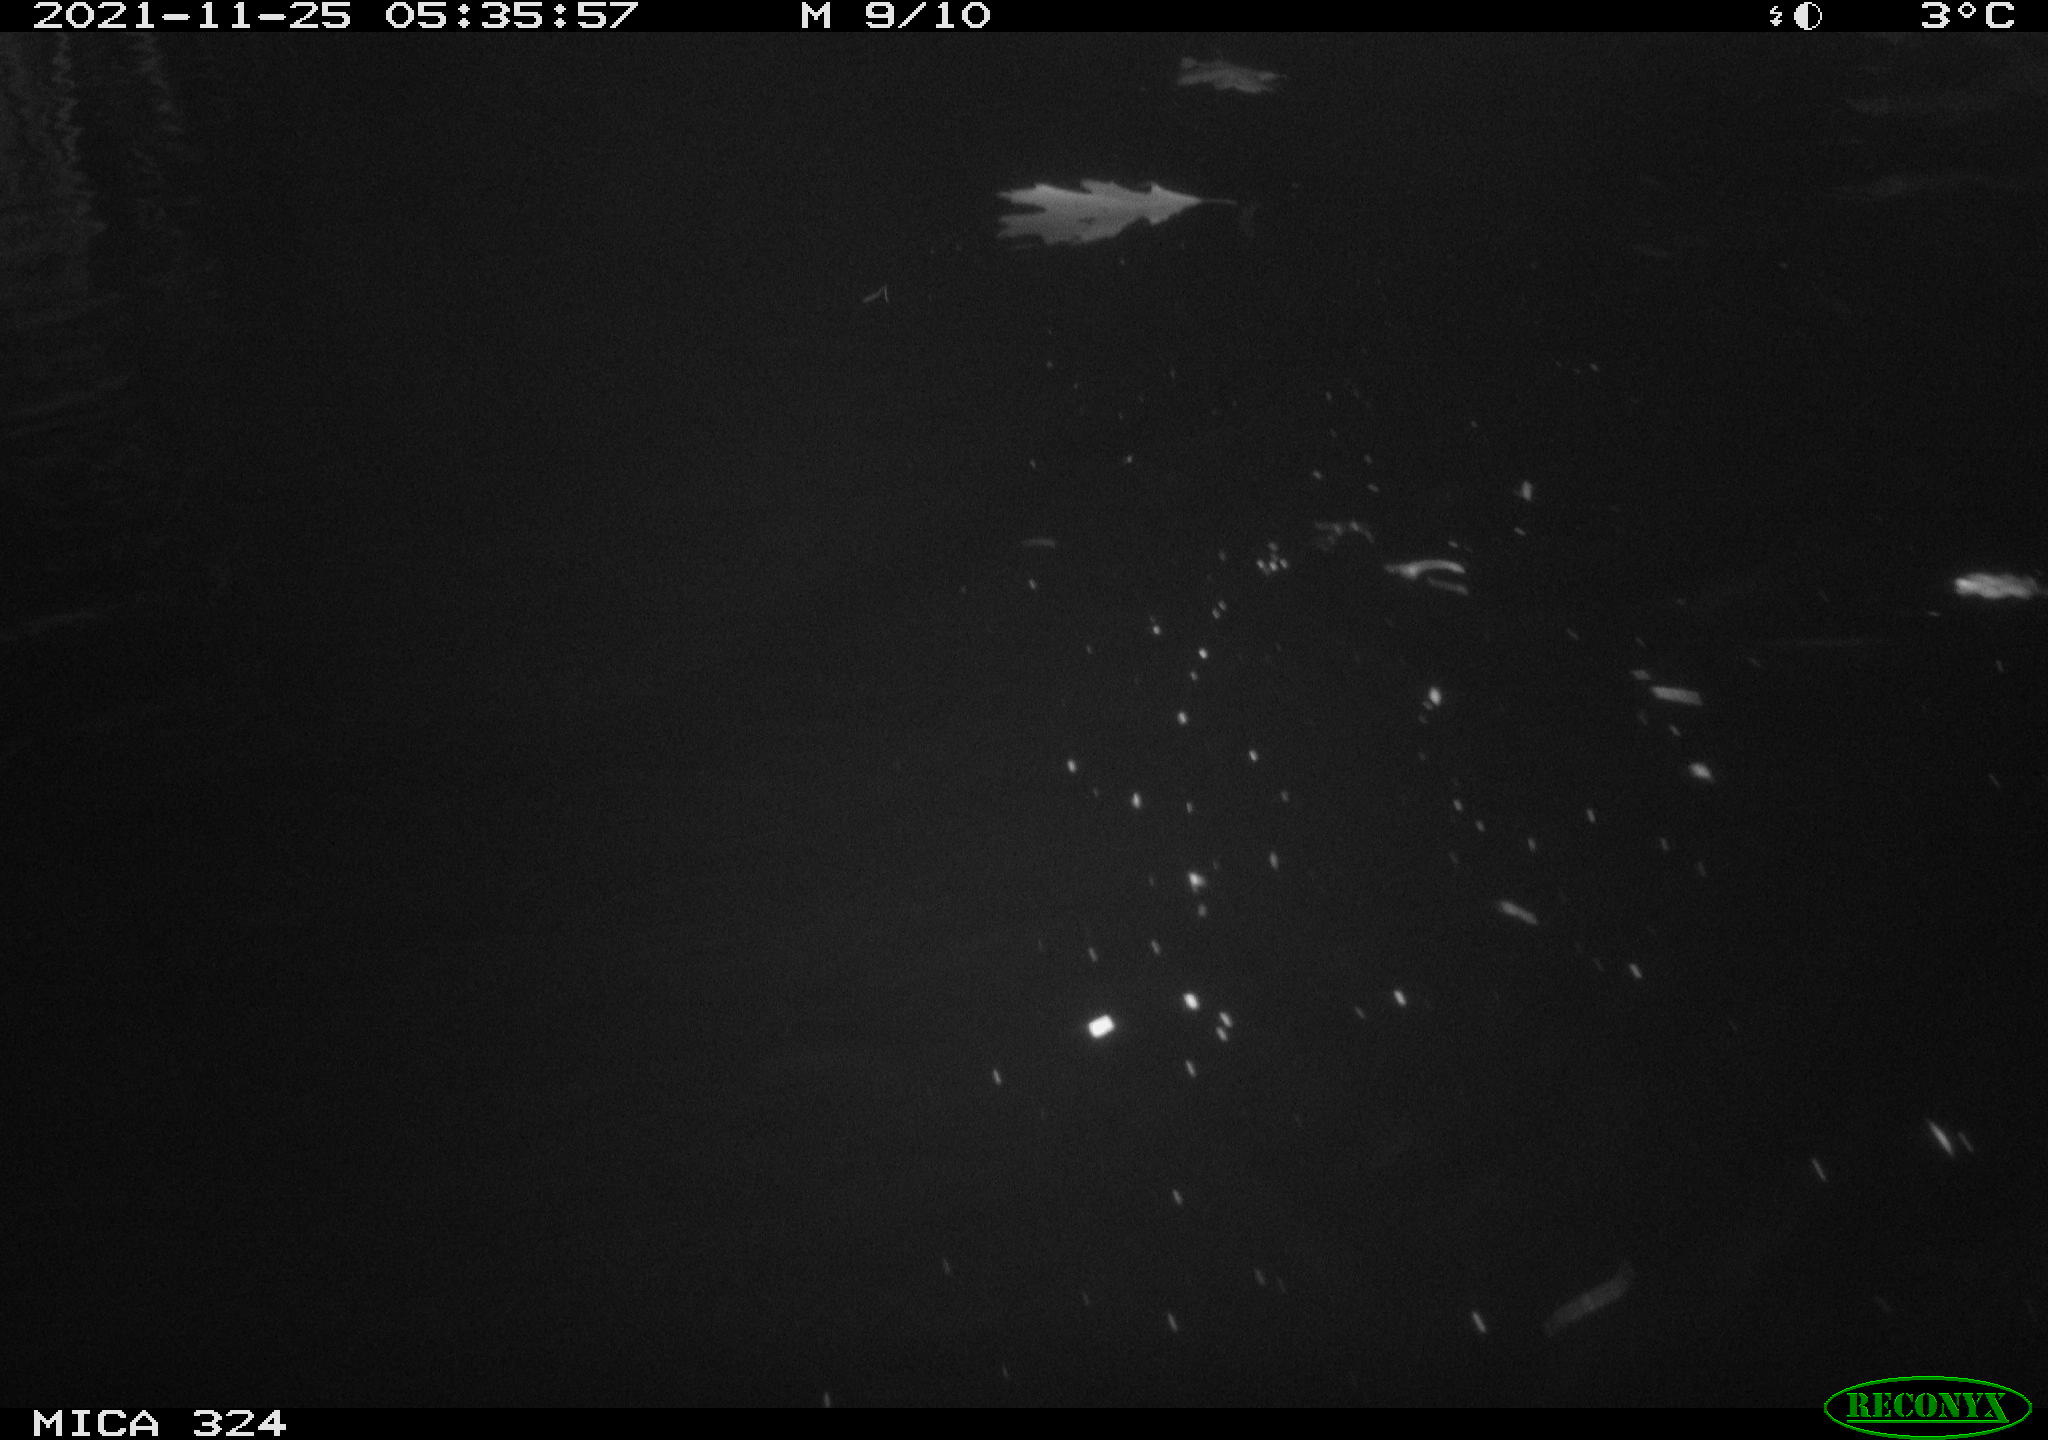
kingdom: Animalia
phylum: Chordata
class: Mammalia
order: Rodentia
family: Cricetidae
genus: Ondatra
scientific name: Ondatra zibethicus
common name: Muskrat
